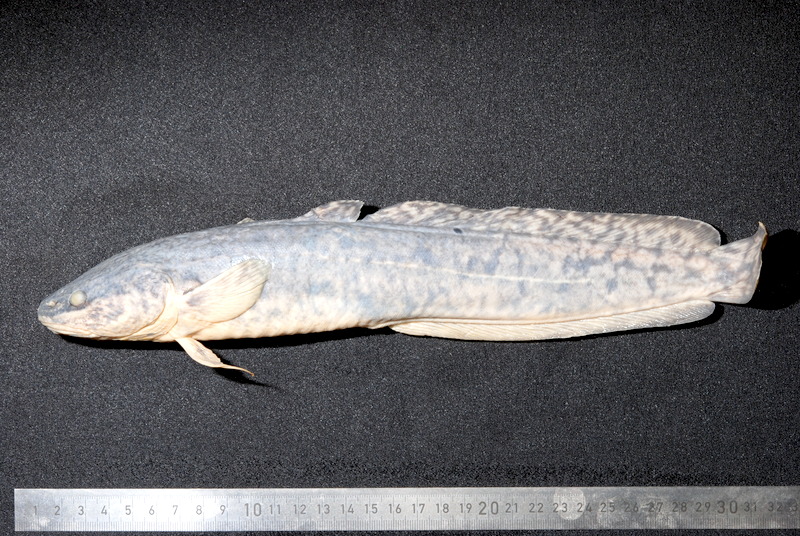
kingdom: Animalia
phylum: Chordata
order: Gadiformes
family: Lotidae
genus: Lota
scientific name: Lota lota
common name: Burbot
